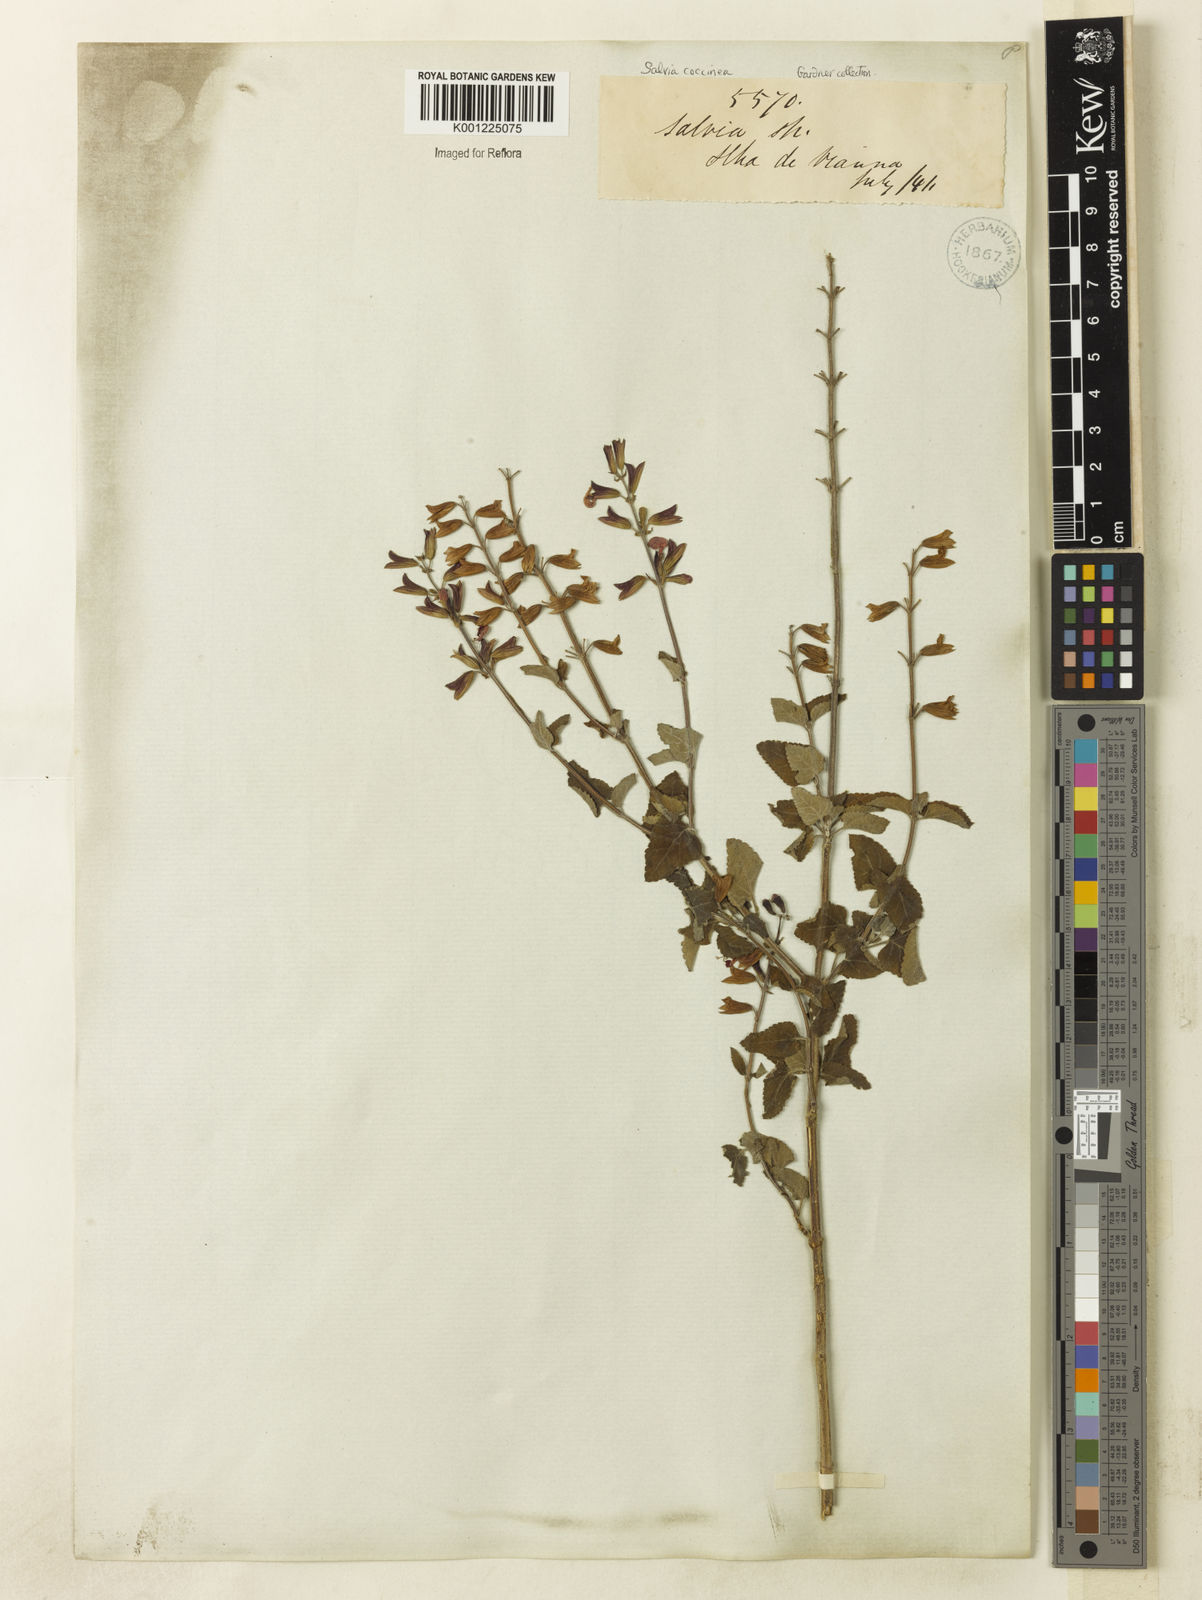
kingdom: Plantae
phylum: Tracheophyta
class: Magnoliopsida
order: Lamiales
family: Lamiaceae
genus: Salvia
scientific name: Salvia coccinea
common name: Blood sage
